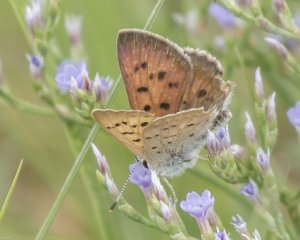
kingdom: Animalia
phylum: Arthropoda
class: Insecta
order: Lepidoptera
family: Lycaenidae
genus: Epidemia
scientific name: Epidemia dorcas
